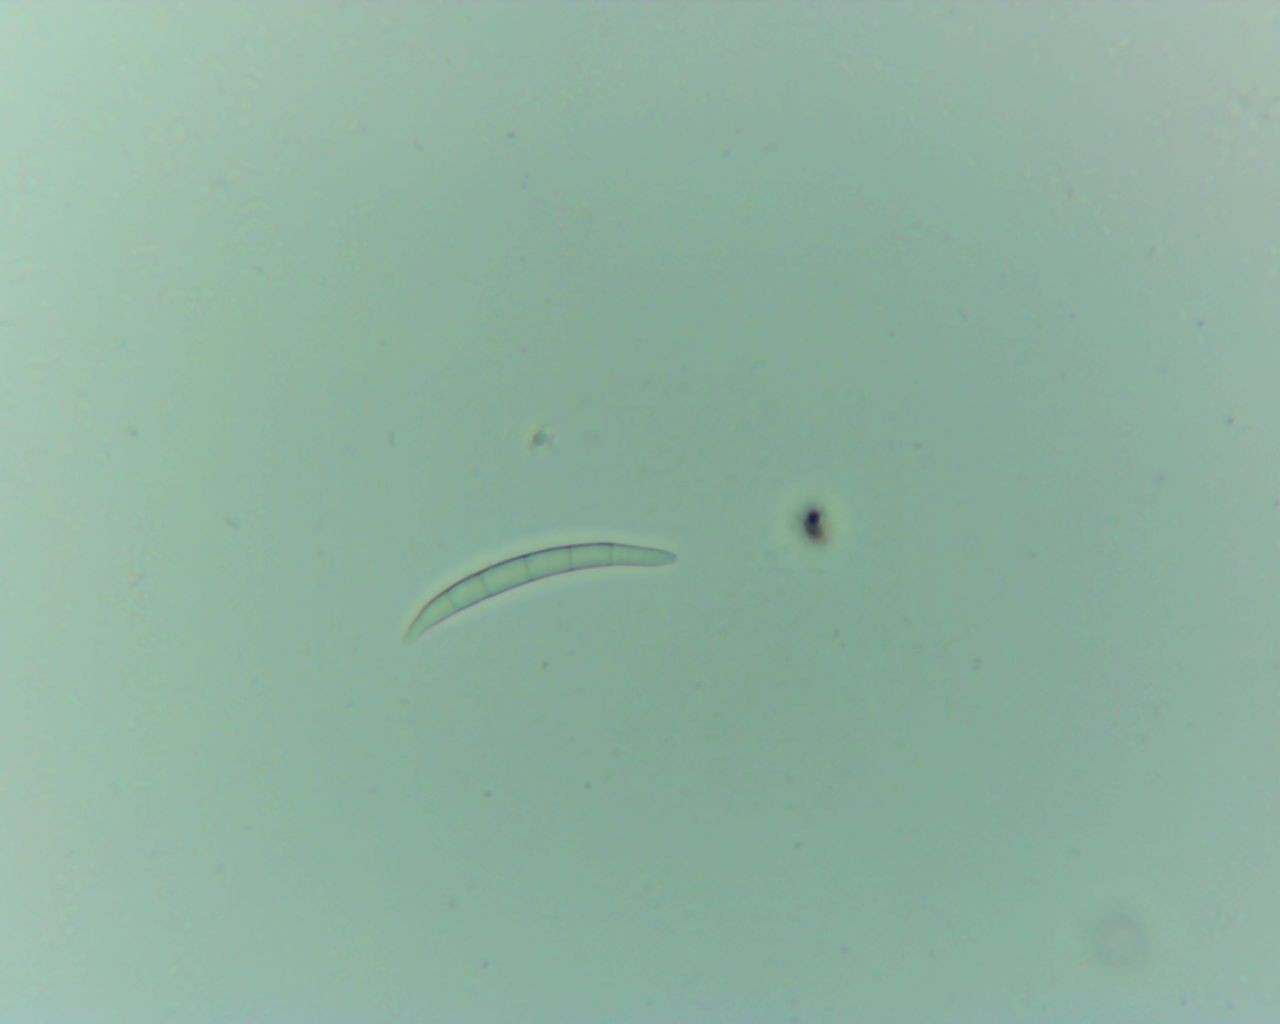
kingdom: Fungi
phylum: Basidiomycota
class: Agaricomycetes
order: Agaricales
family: Clavariaceae
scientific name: Clavariaceae
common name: køllesvampfamilien
